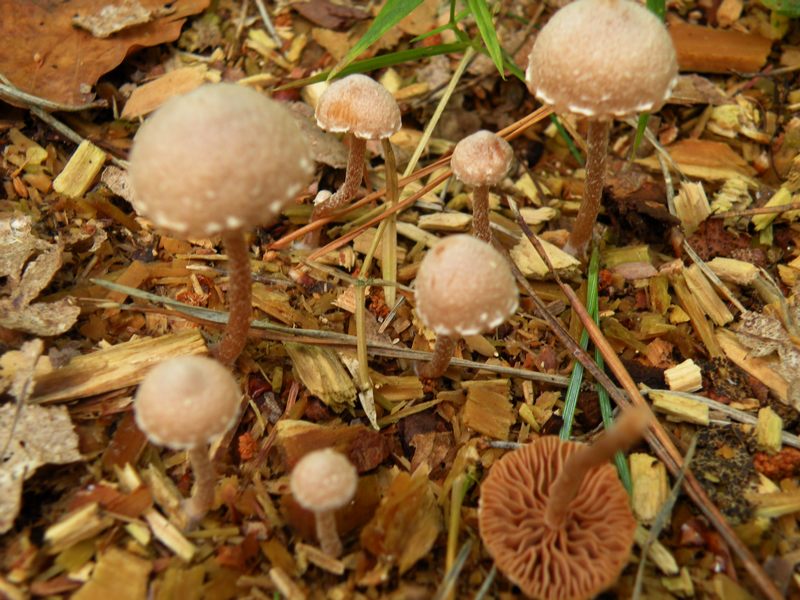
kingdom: Fungi
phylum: Basidiomycota
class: Agaricomycetes
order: Agaricales
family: Tubariaceae
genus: Tubaria
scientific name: Tubaria conspersa
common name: bleg fnughat
